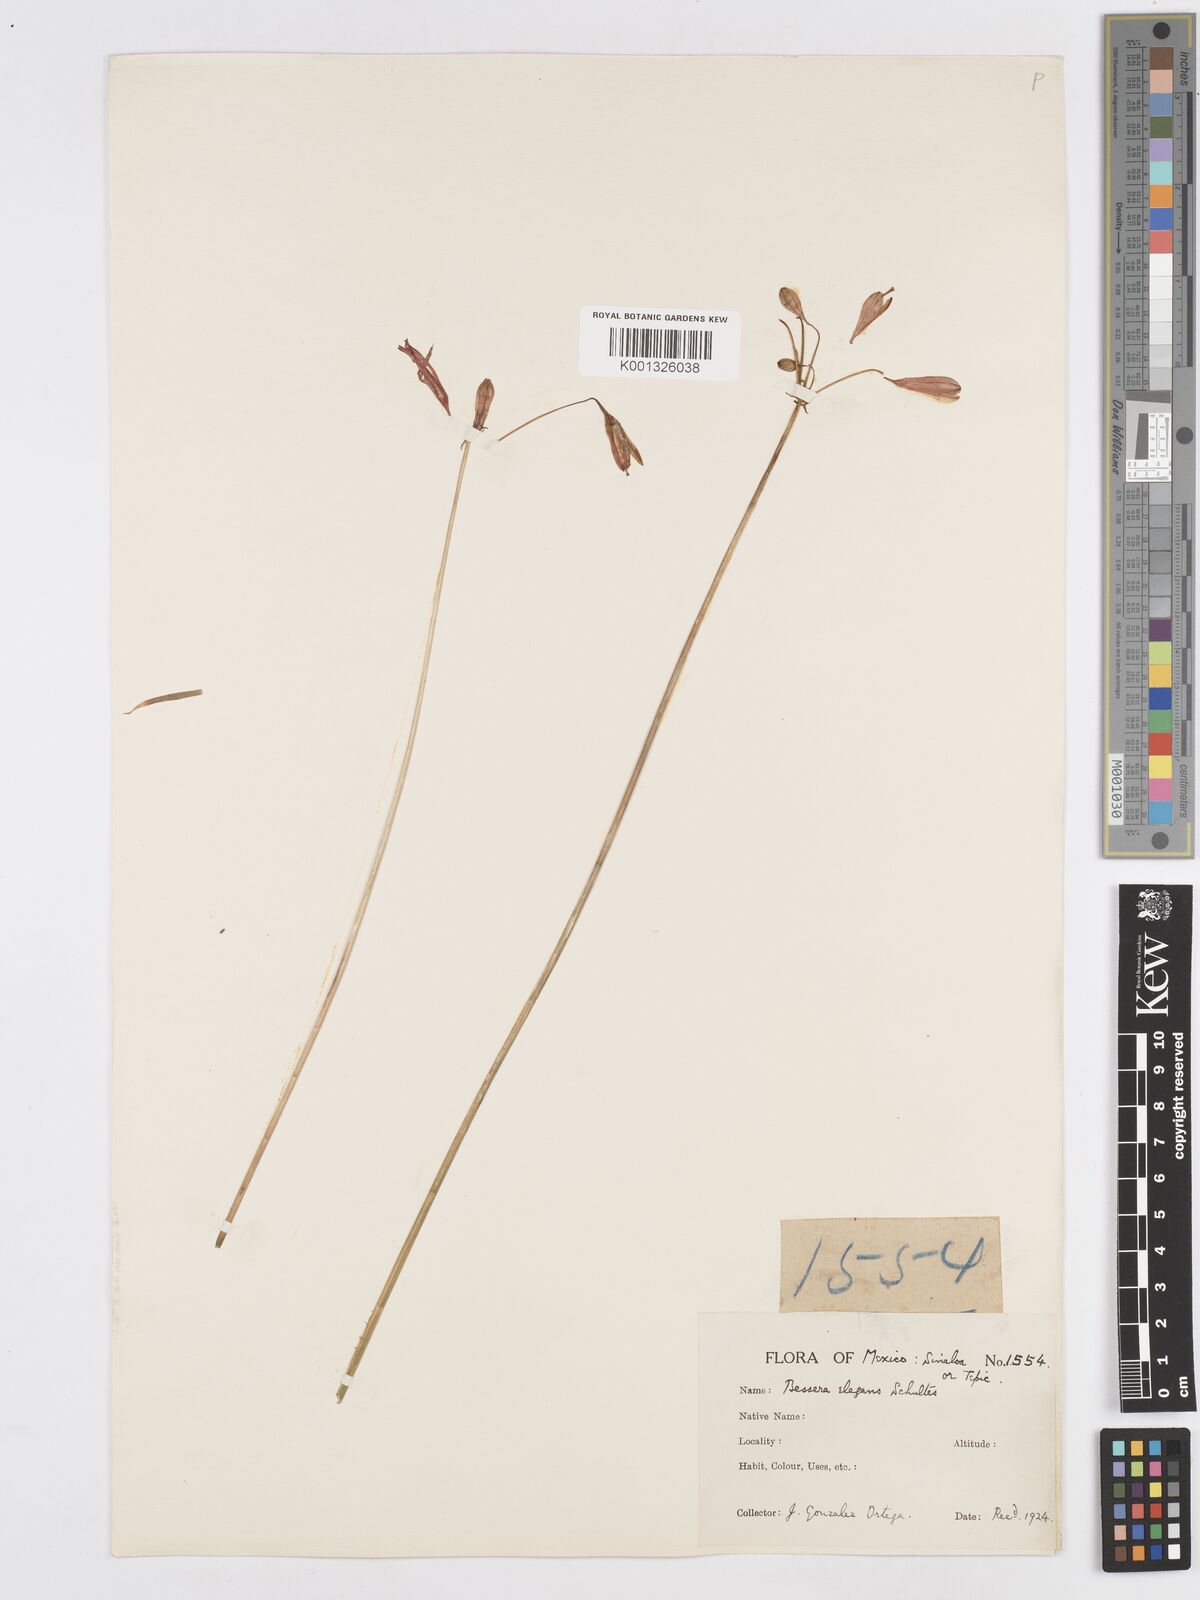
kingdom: Plantae
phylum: Tracheophyta
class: Liliopsida
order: Asparagales
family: Asparagaceae
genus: Bessera
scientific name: Bessera elegans
